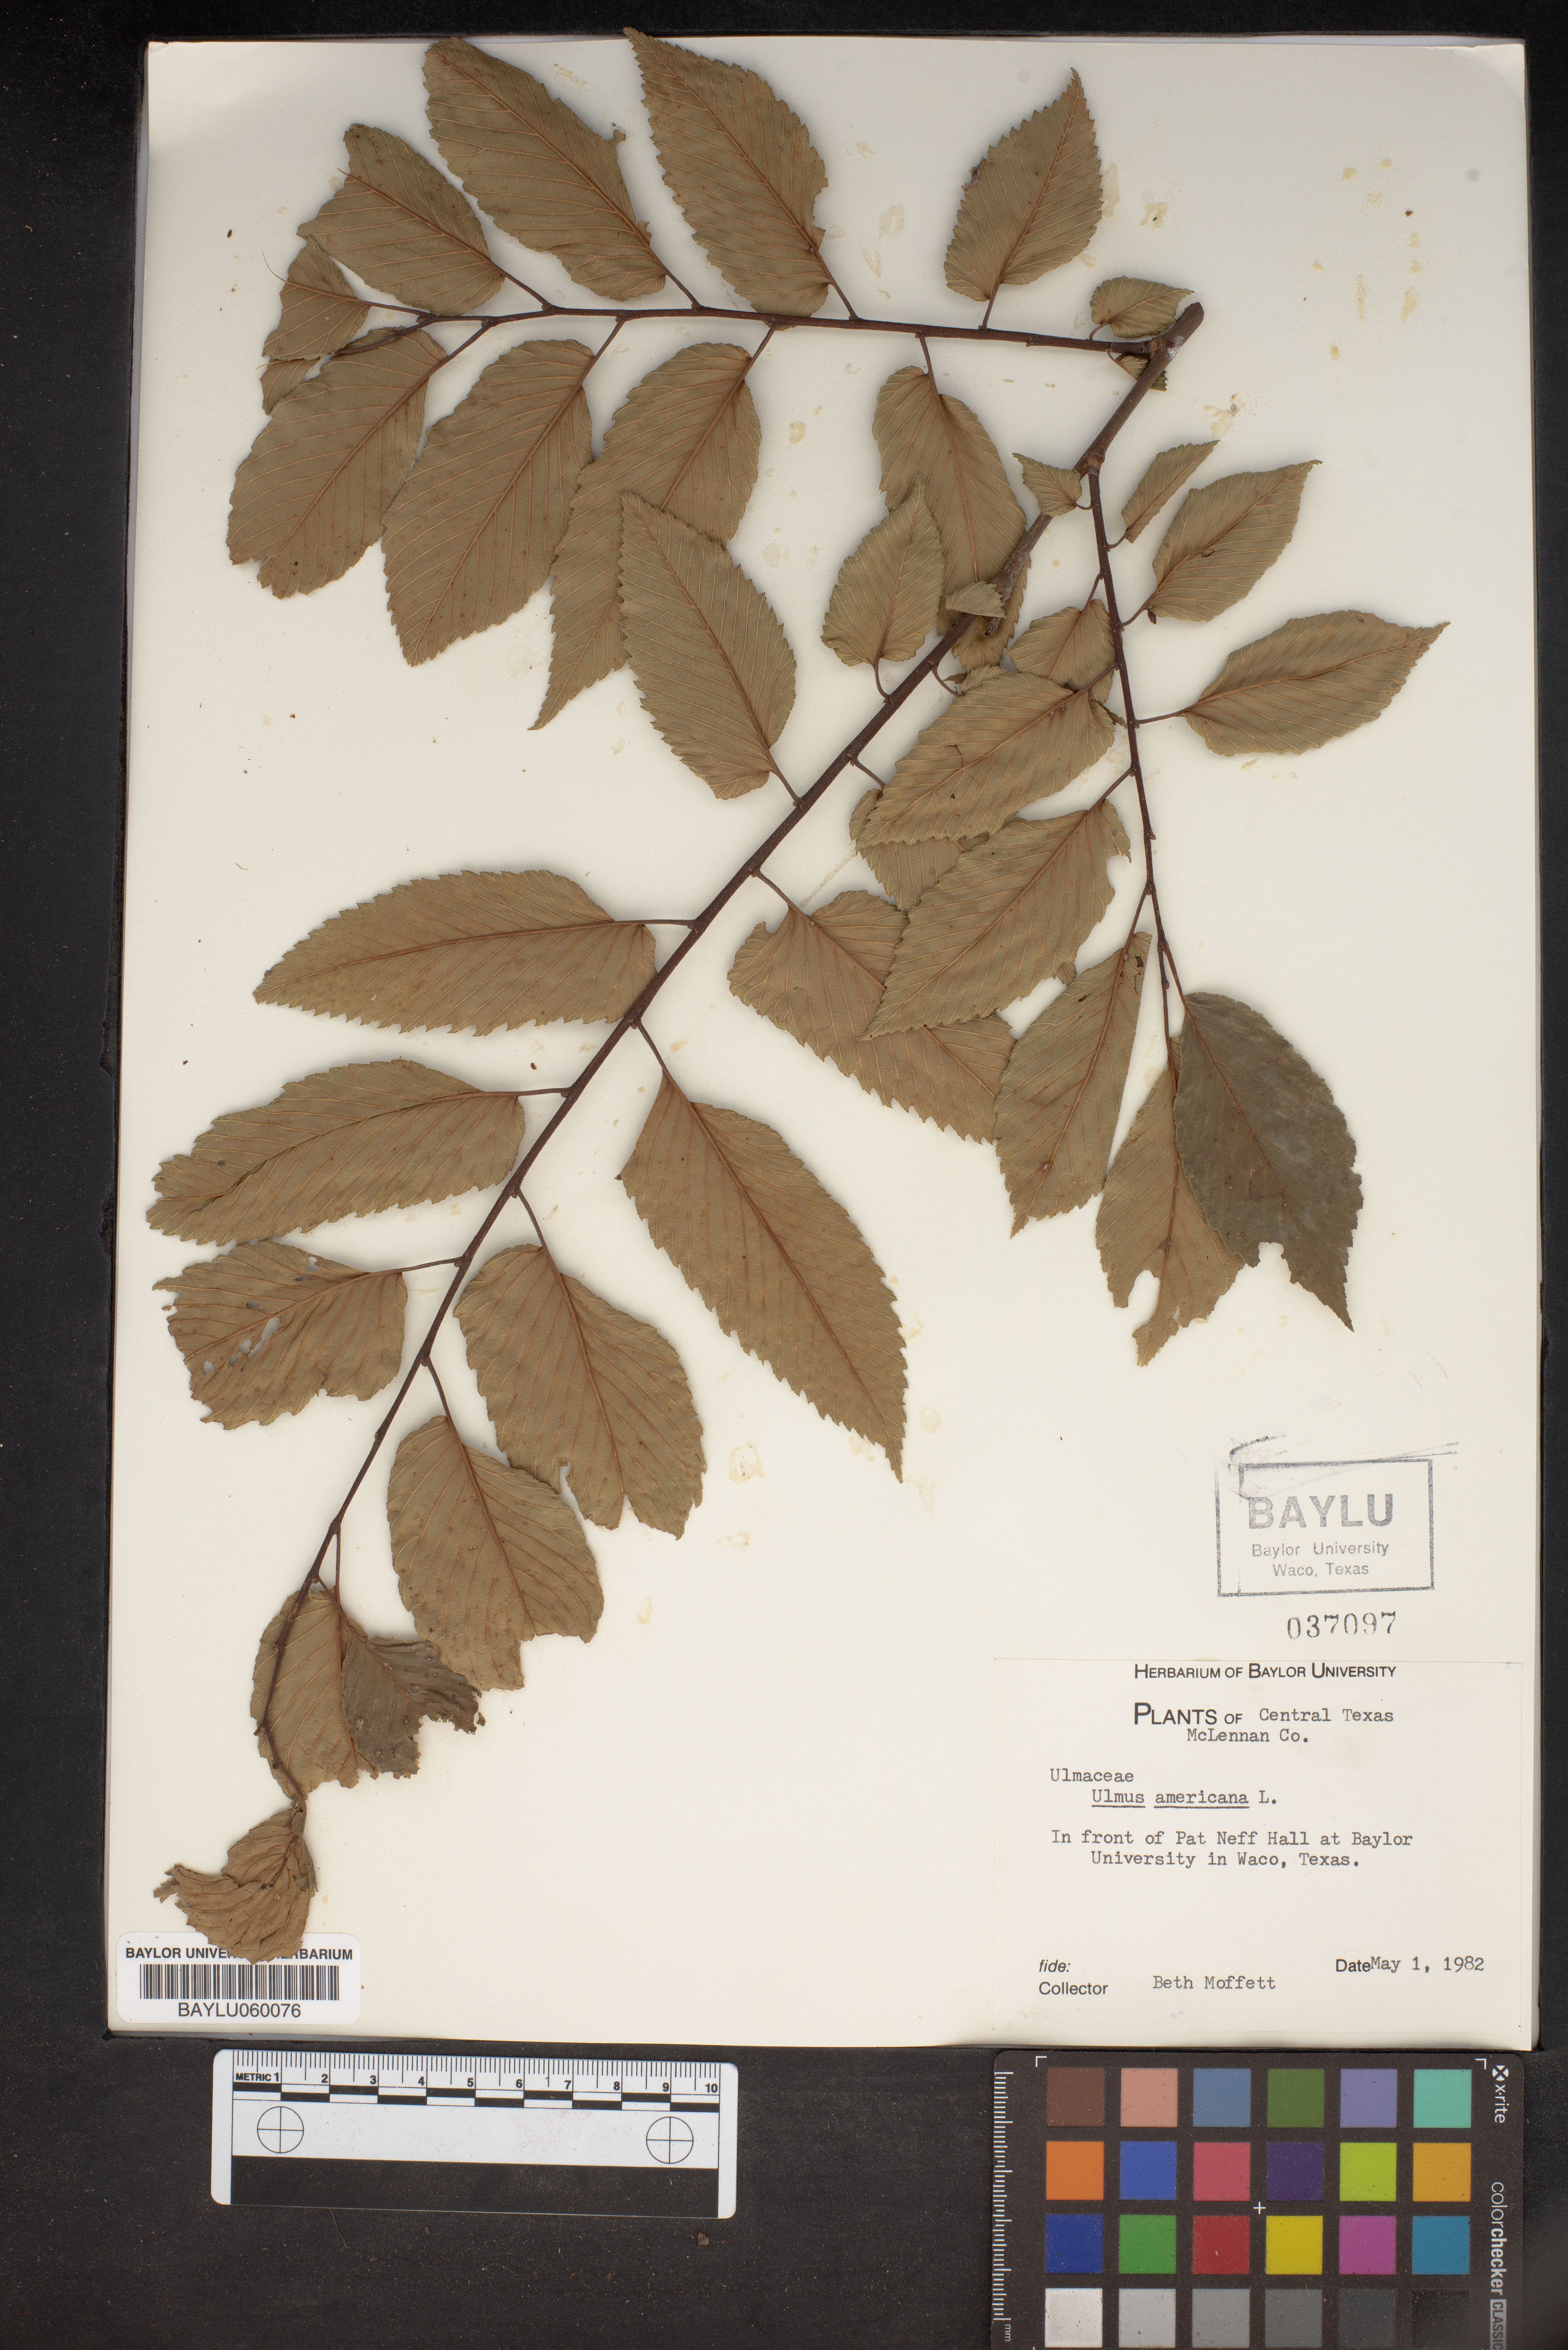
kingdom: Plantae
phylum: Tracheophyta
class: Magnoliopsida
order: Rosales
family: Ulmaceae
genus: Ulmus
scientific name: Ulmus americana
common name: American elm
